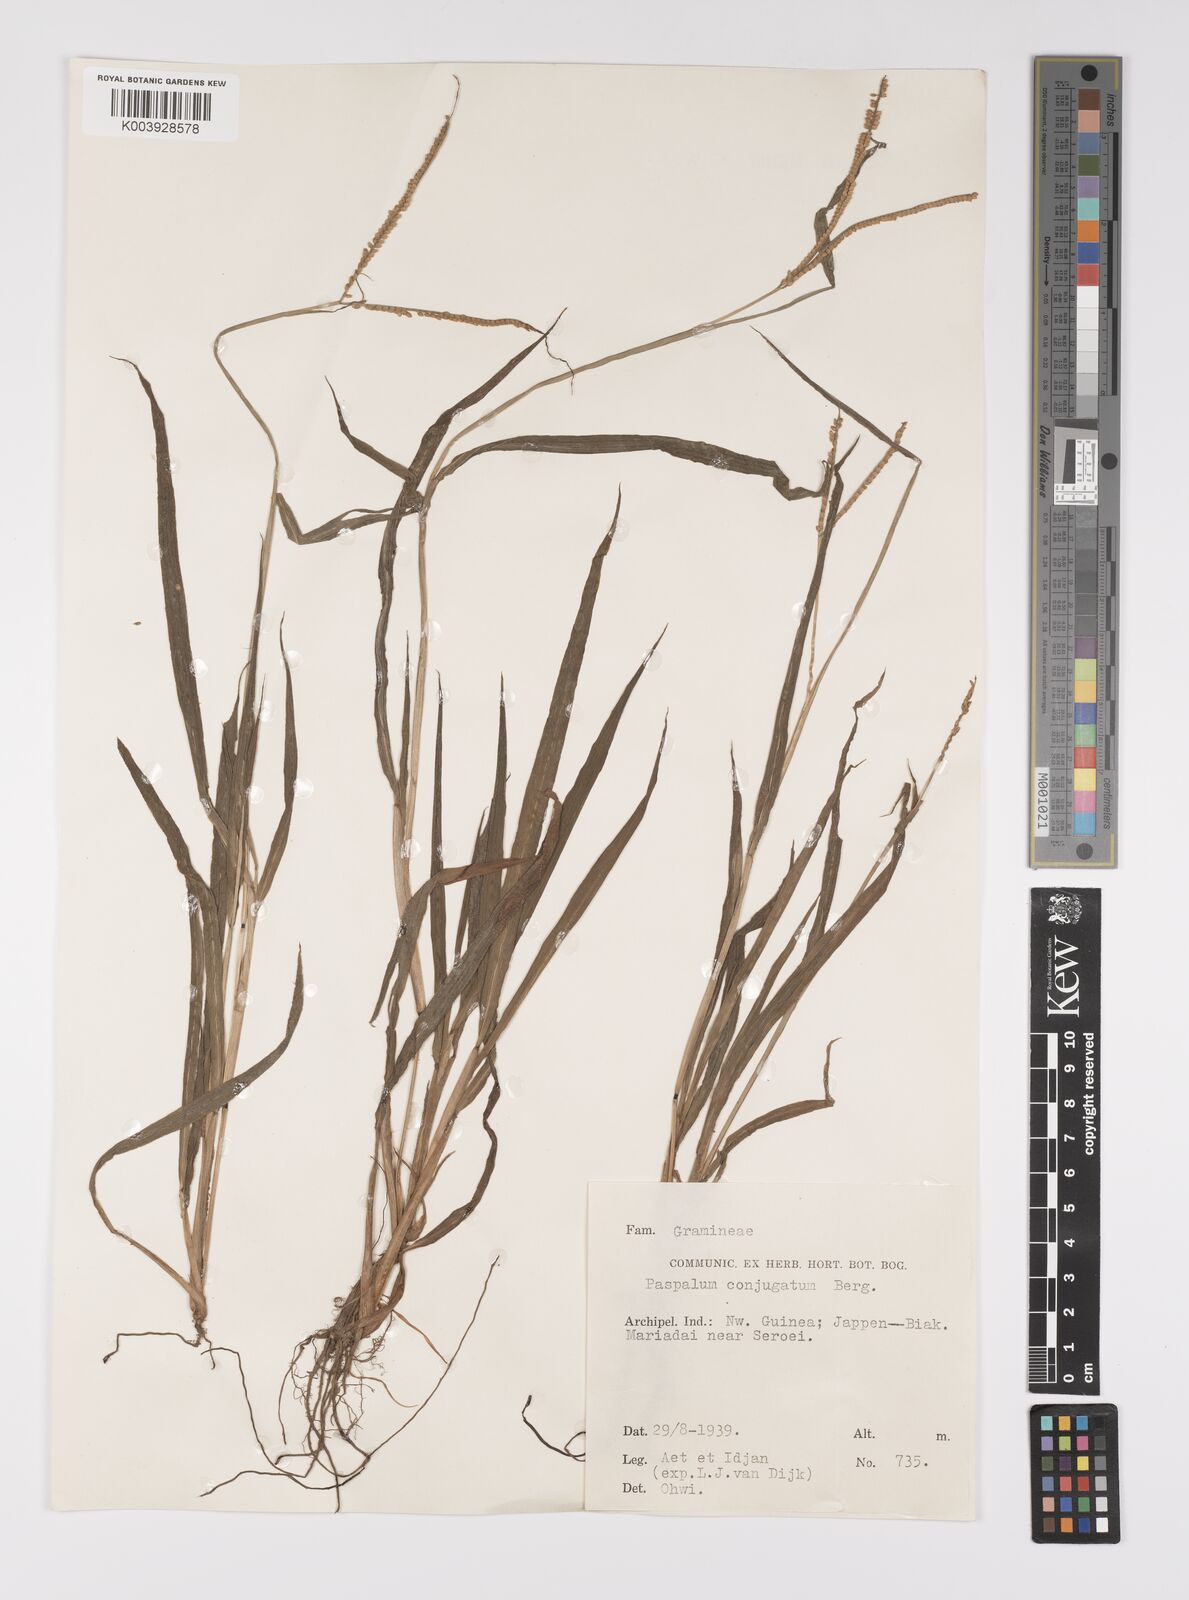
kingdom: Plantae
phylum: Tracheophyta
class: Liliopsida
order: Poales
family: Poaceae
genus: Paspalum
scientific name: Paspalum conjugatum
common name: Hilograss
